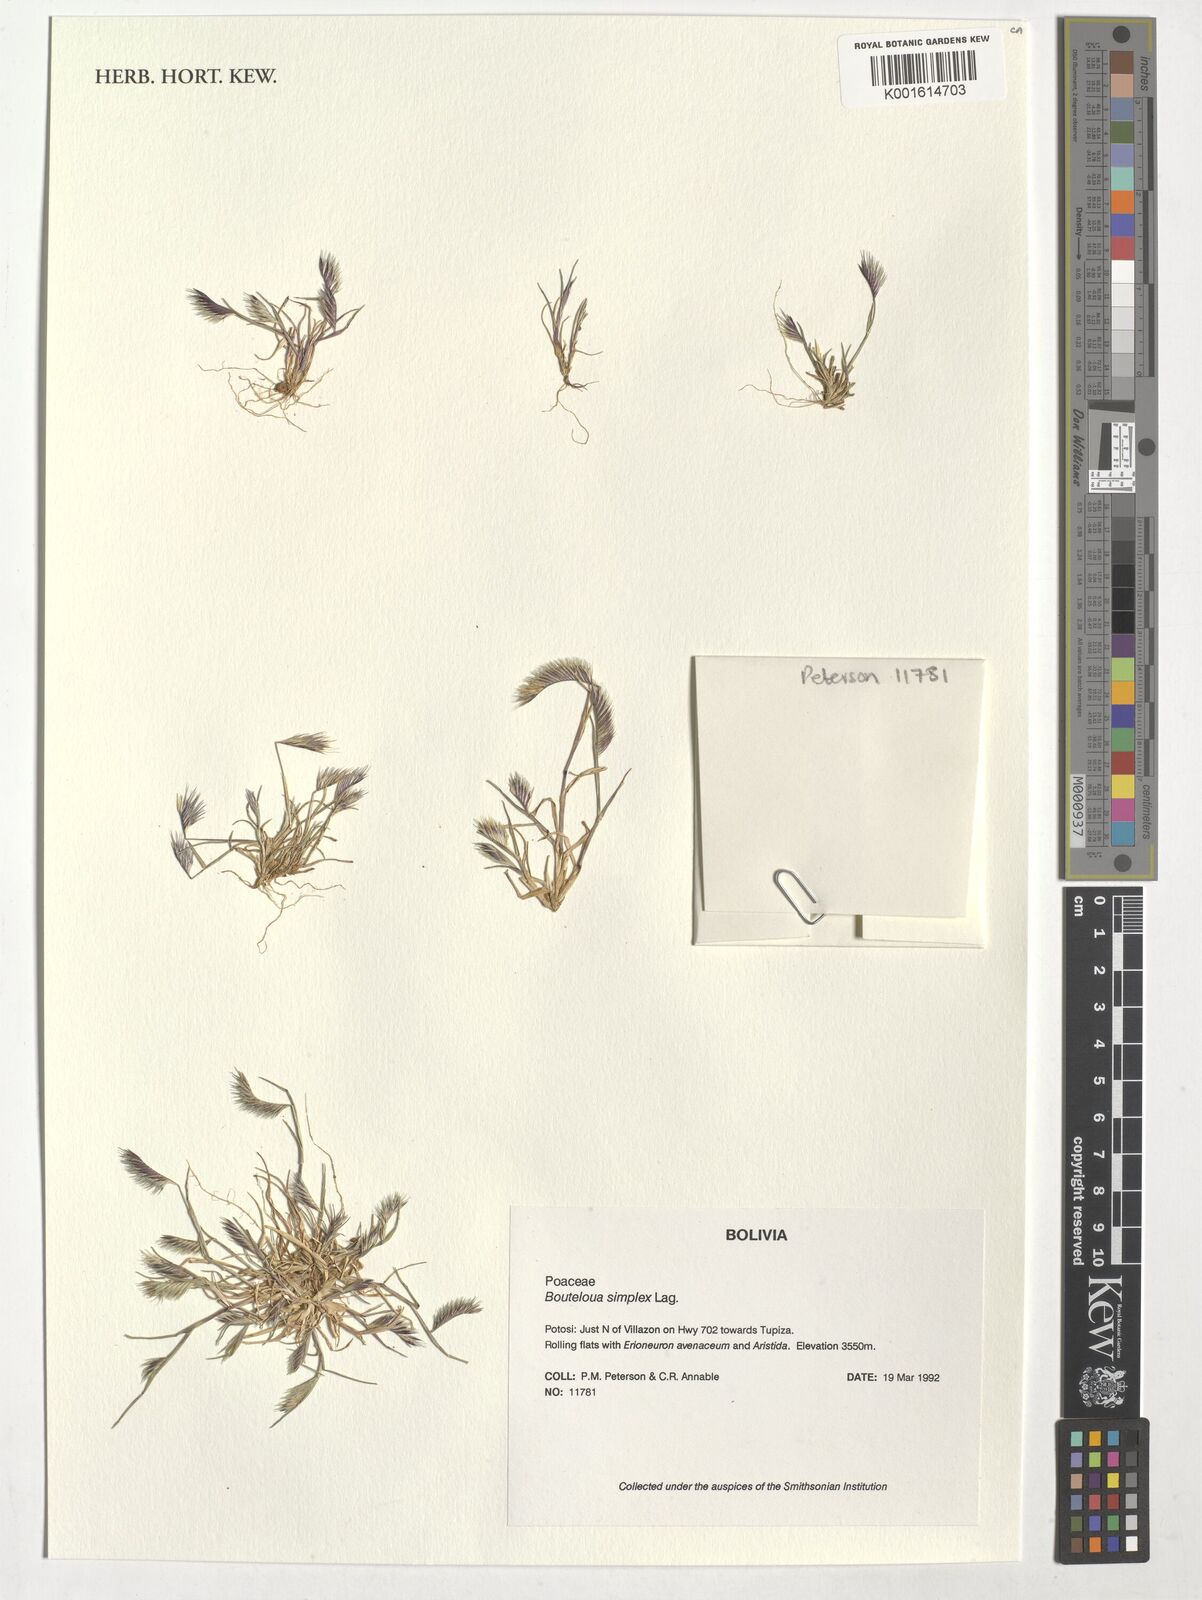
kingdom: Plantae
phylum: Tracheophyta
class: Liliopsida
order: Poales
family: Poaceae
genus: Bouteloua
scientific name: Bouteloua simplex
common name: Mat grama
